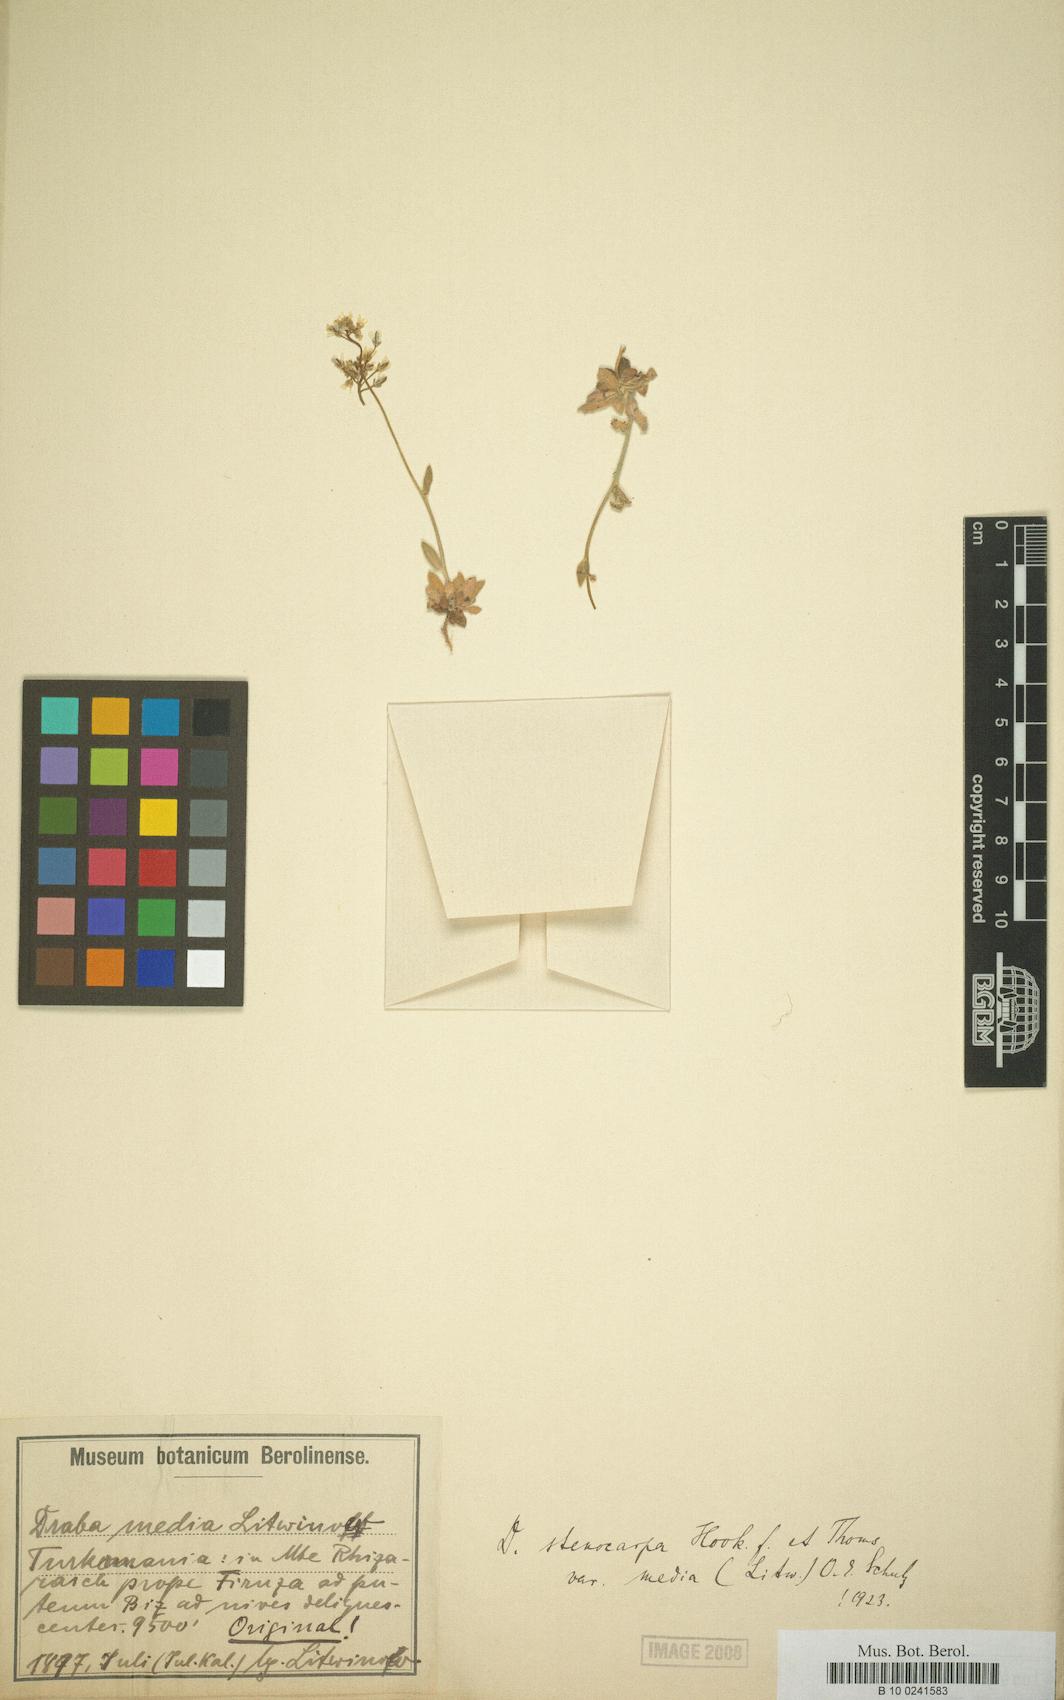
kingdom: Plantae
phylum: Tracheophyta
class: Magnoliopsida
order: Brassicales
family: Brassicaceae
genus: Draba
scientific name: Draba stenocarpa
